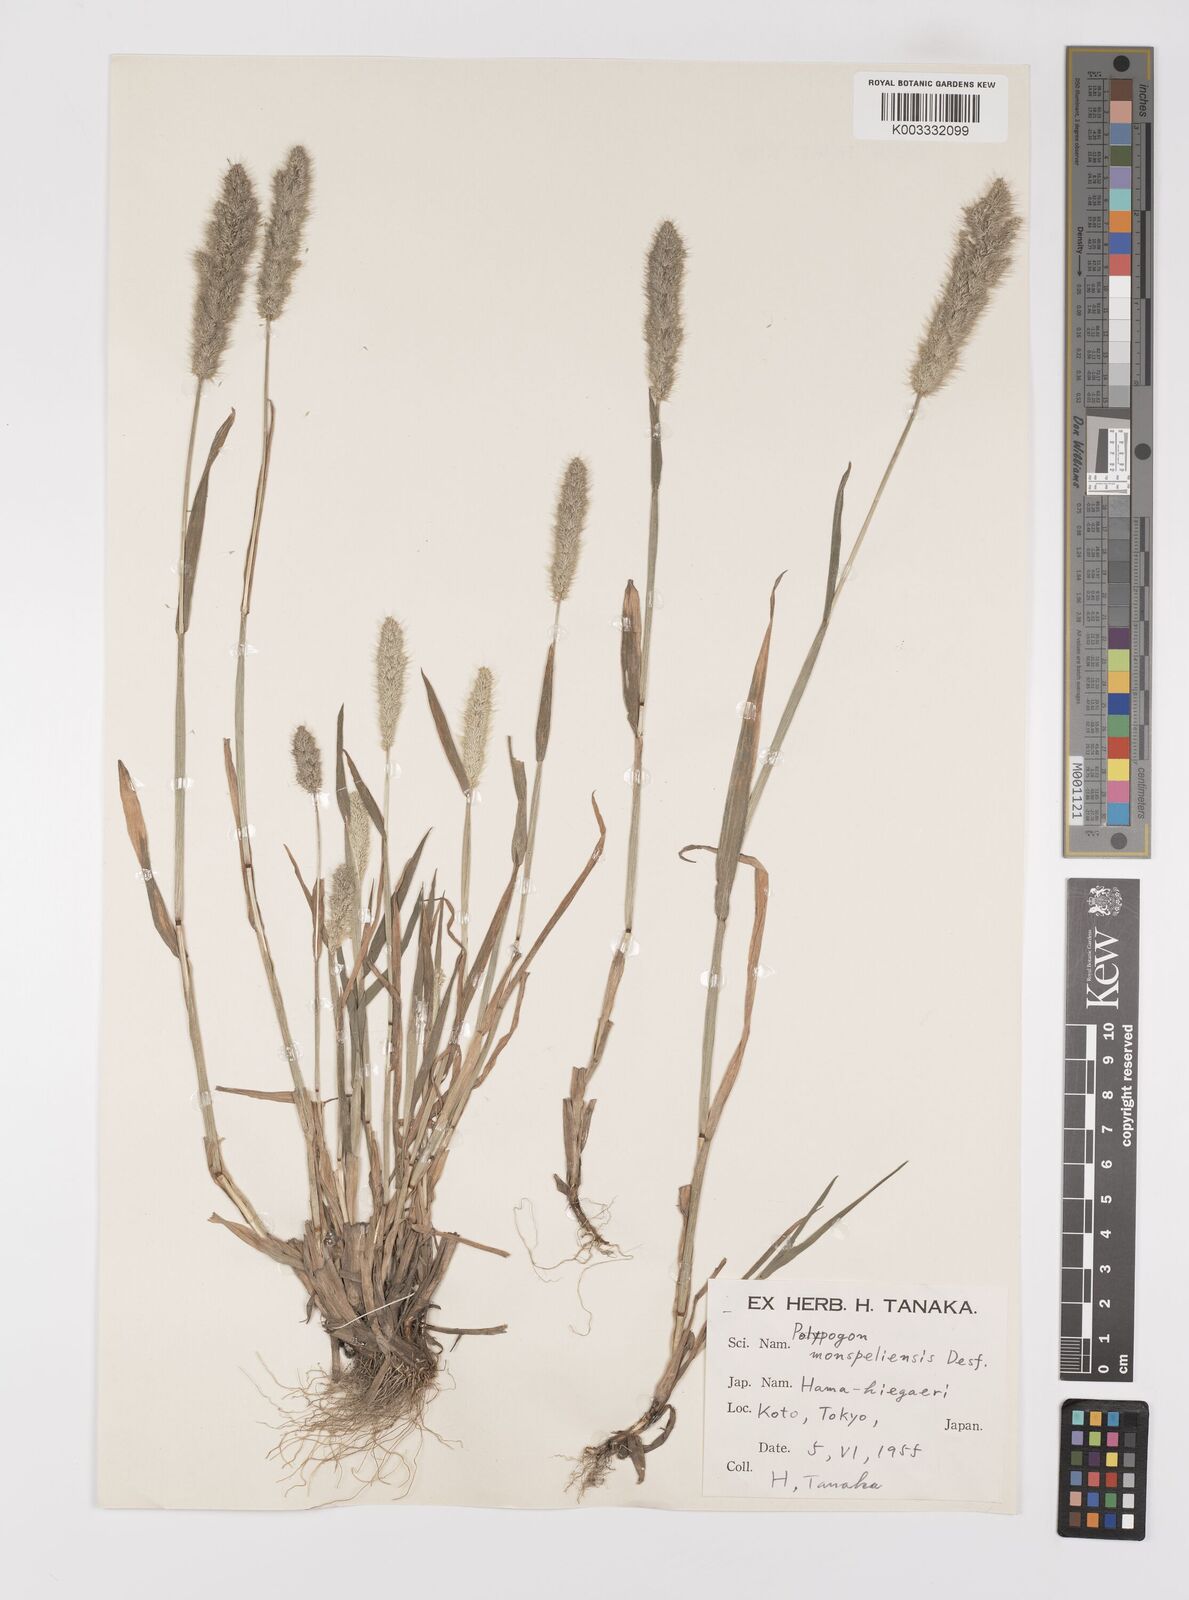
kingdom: Plantae
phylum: Tracheophyta
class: Liliopsida
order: Poales
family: Poaceae
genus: Polypogon
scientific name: Polypogon monspeliensis
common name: Annual rabbitsfoot grass
